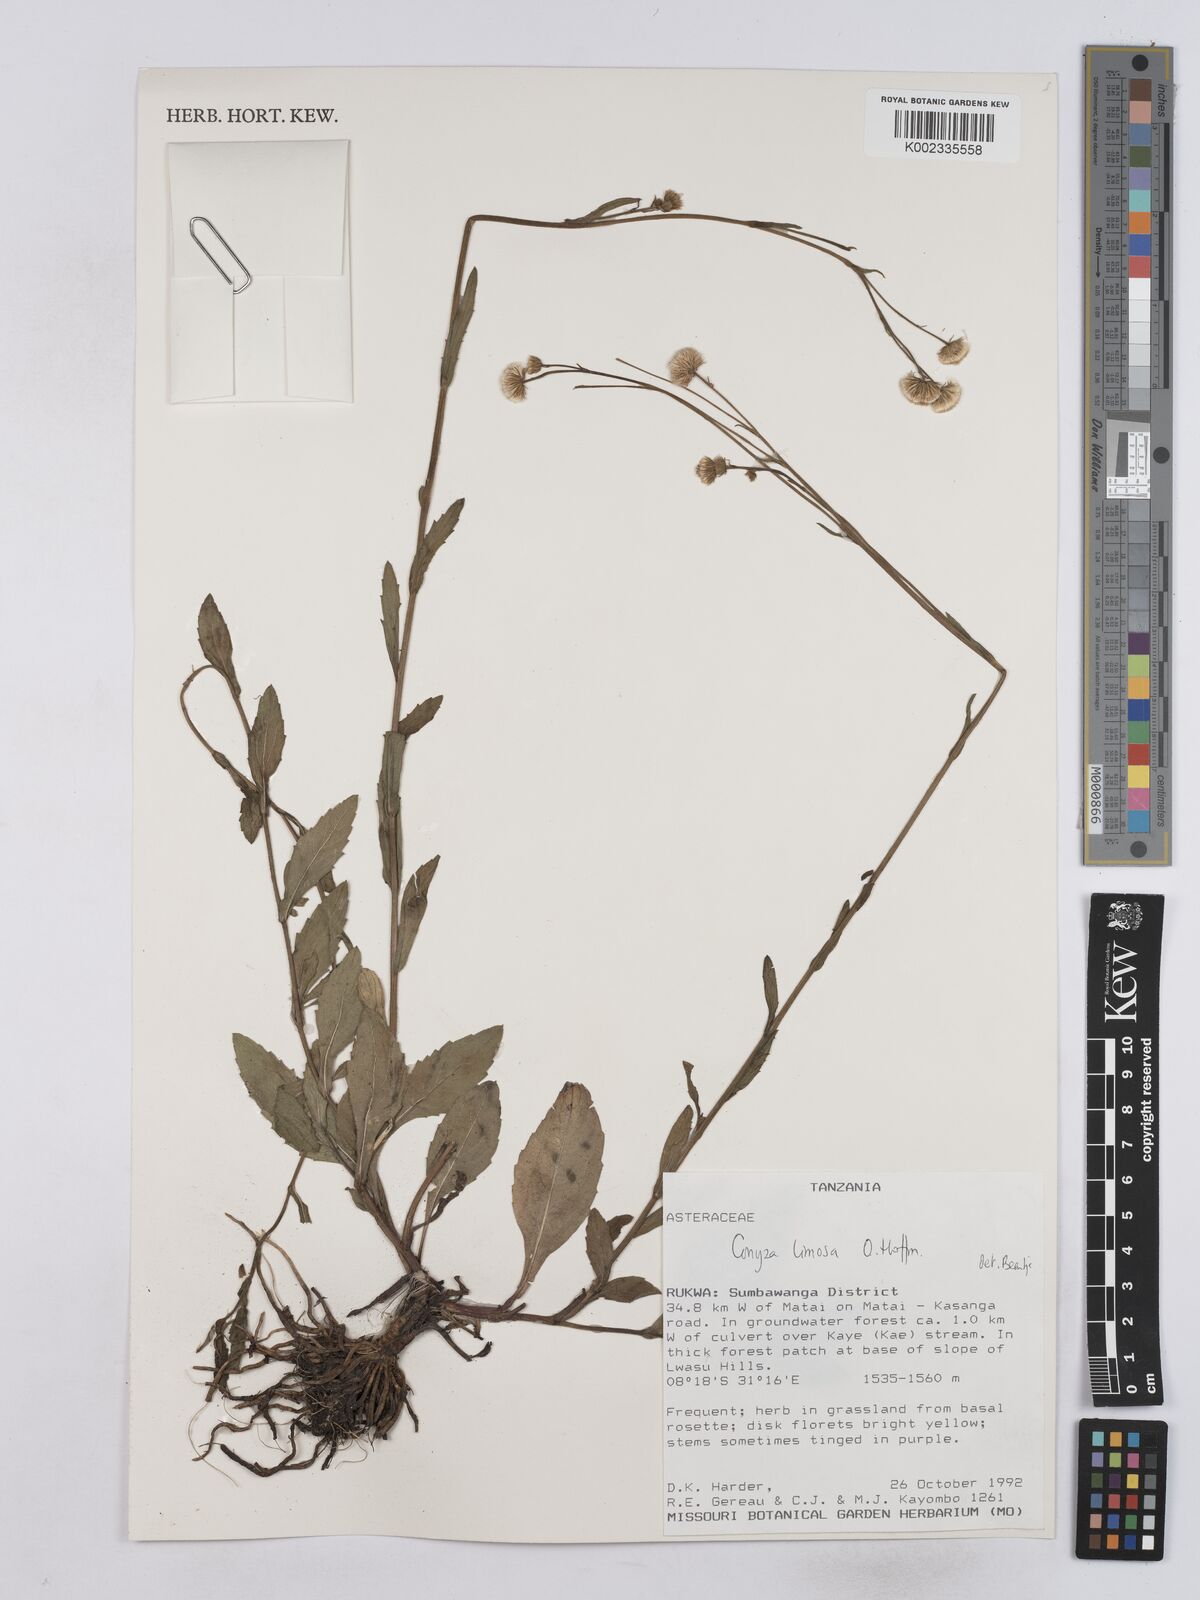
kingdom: Plantae
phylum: Tracheophyta
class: Magnoliopsida
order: Asterales
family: Asteraceae
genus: Conyza
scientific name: Conyza limosa
